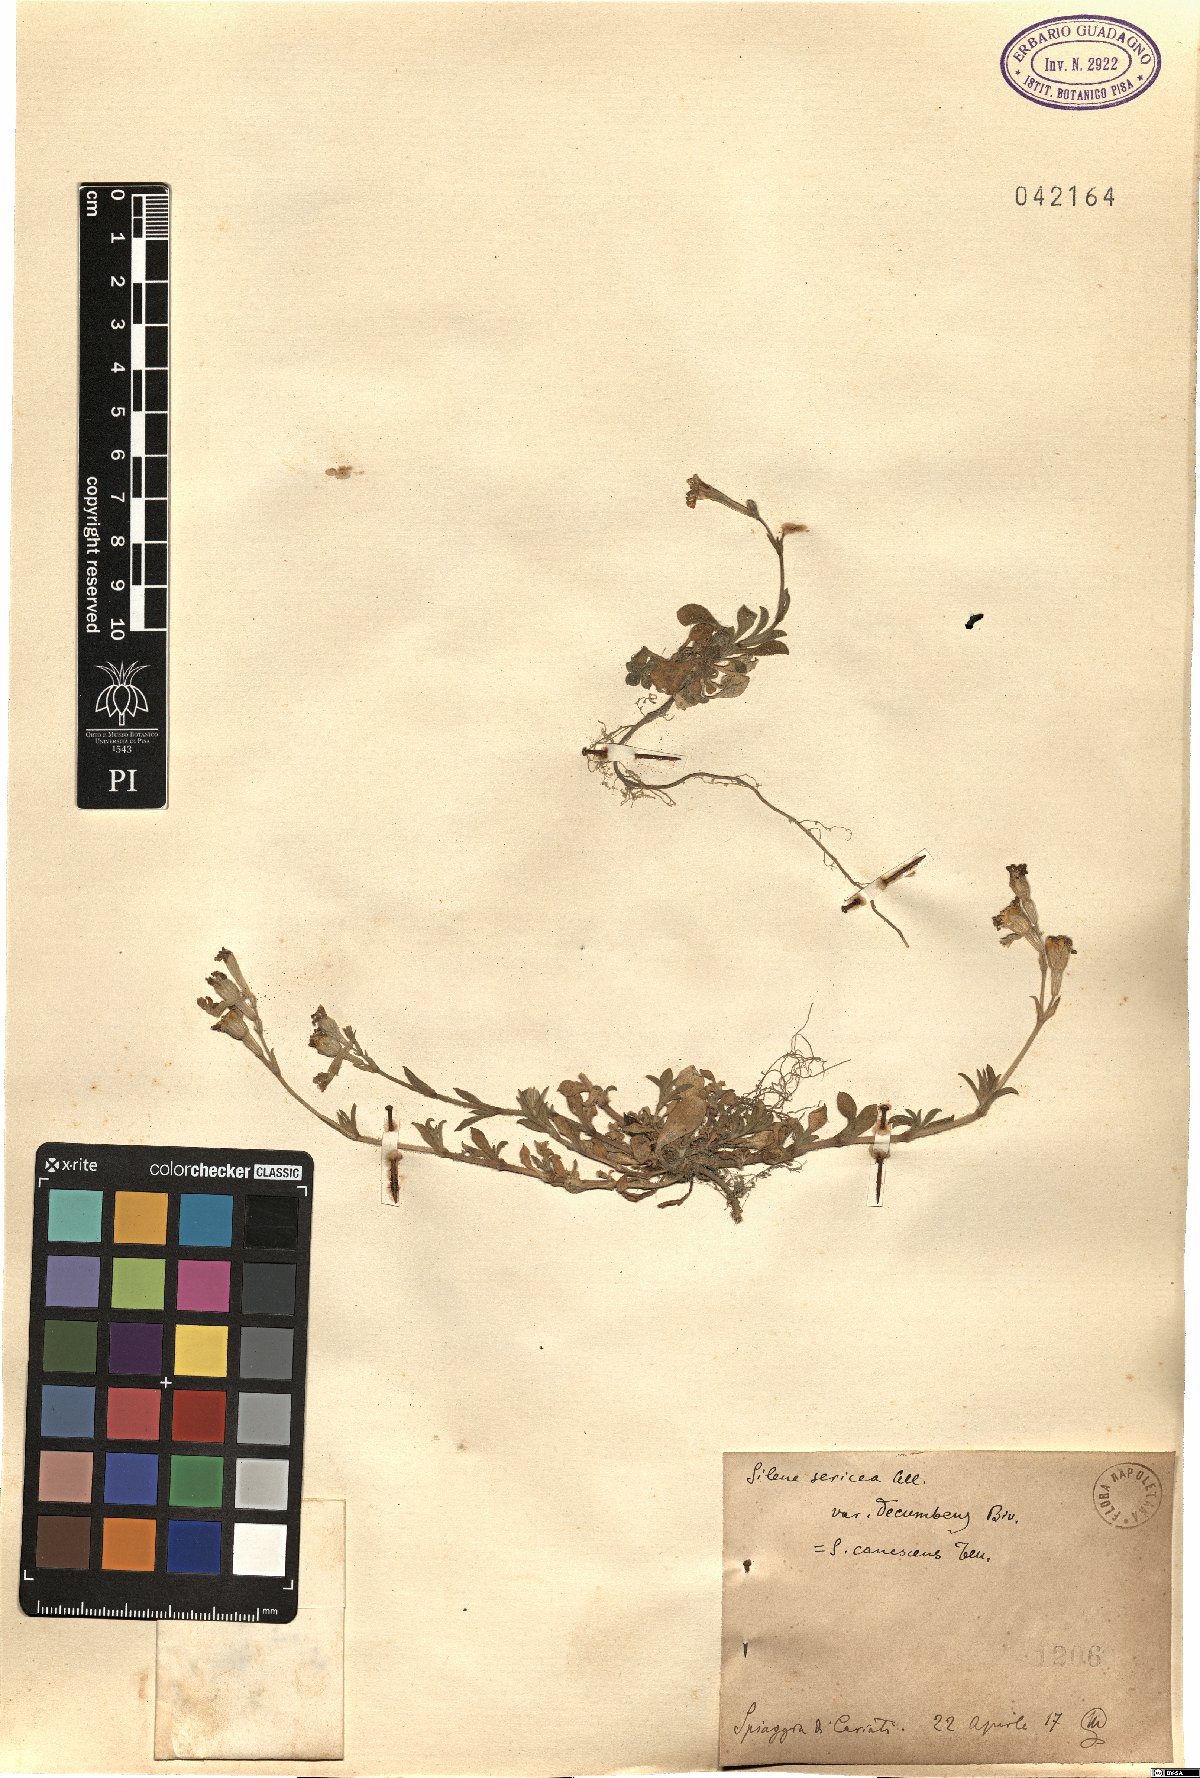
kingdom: Plantae
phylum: Tracheophyta
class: Magnoliopsida
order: Caryophyllales
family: Caryophyllaceae
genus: Silene
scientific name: Silene colorata
